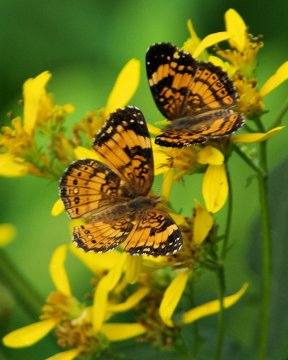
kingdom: Animalia
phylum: Arthropoda
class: Insecta
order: Lepidoptera
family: Nymphalidae
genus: Chlosyne
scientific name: Chlosyne nycteis
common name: Silvery Checkerspot
